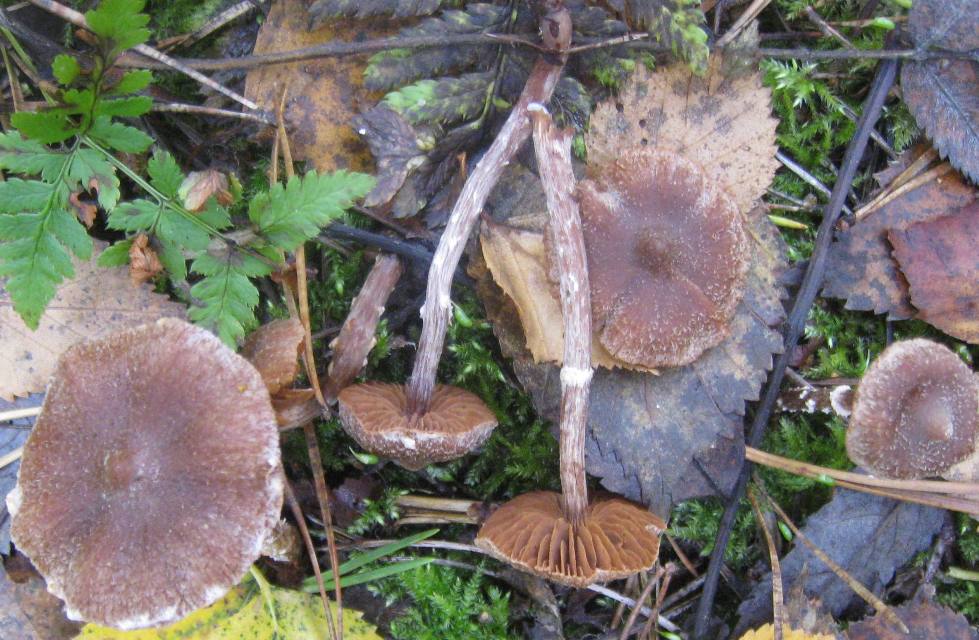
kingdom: Fungi
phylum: Basidiomycota
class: Agaricomycetes
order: Agaricales
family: Cortinariaceae
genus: Cortinarius
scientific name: Cortinarius flexipes
